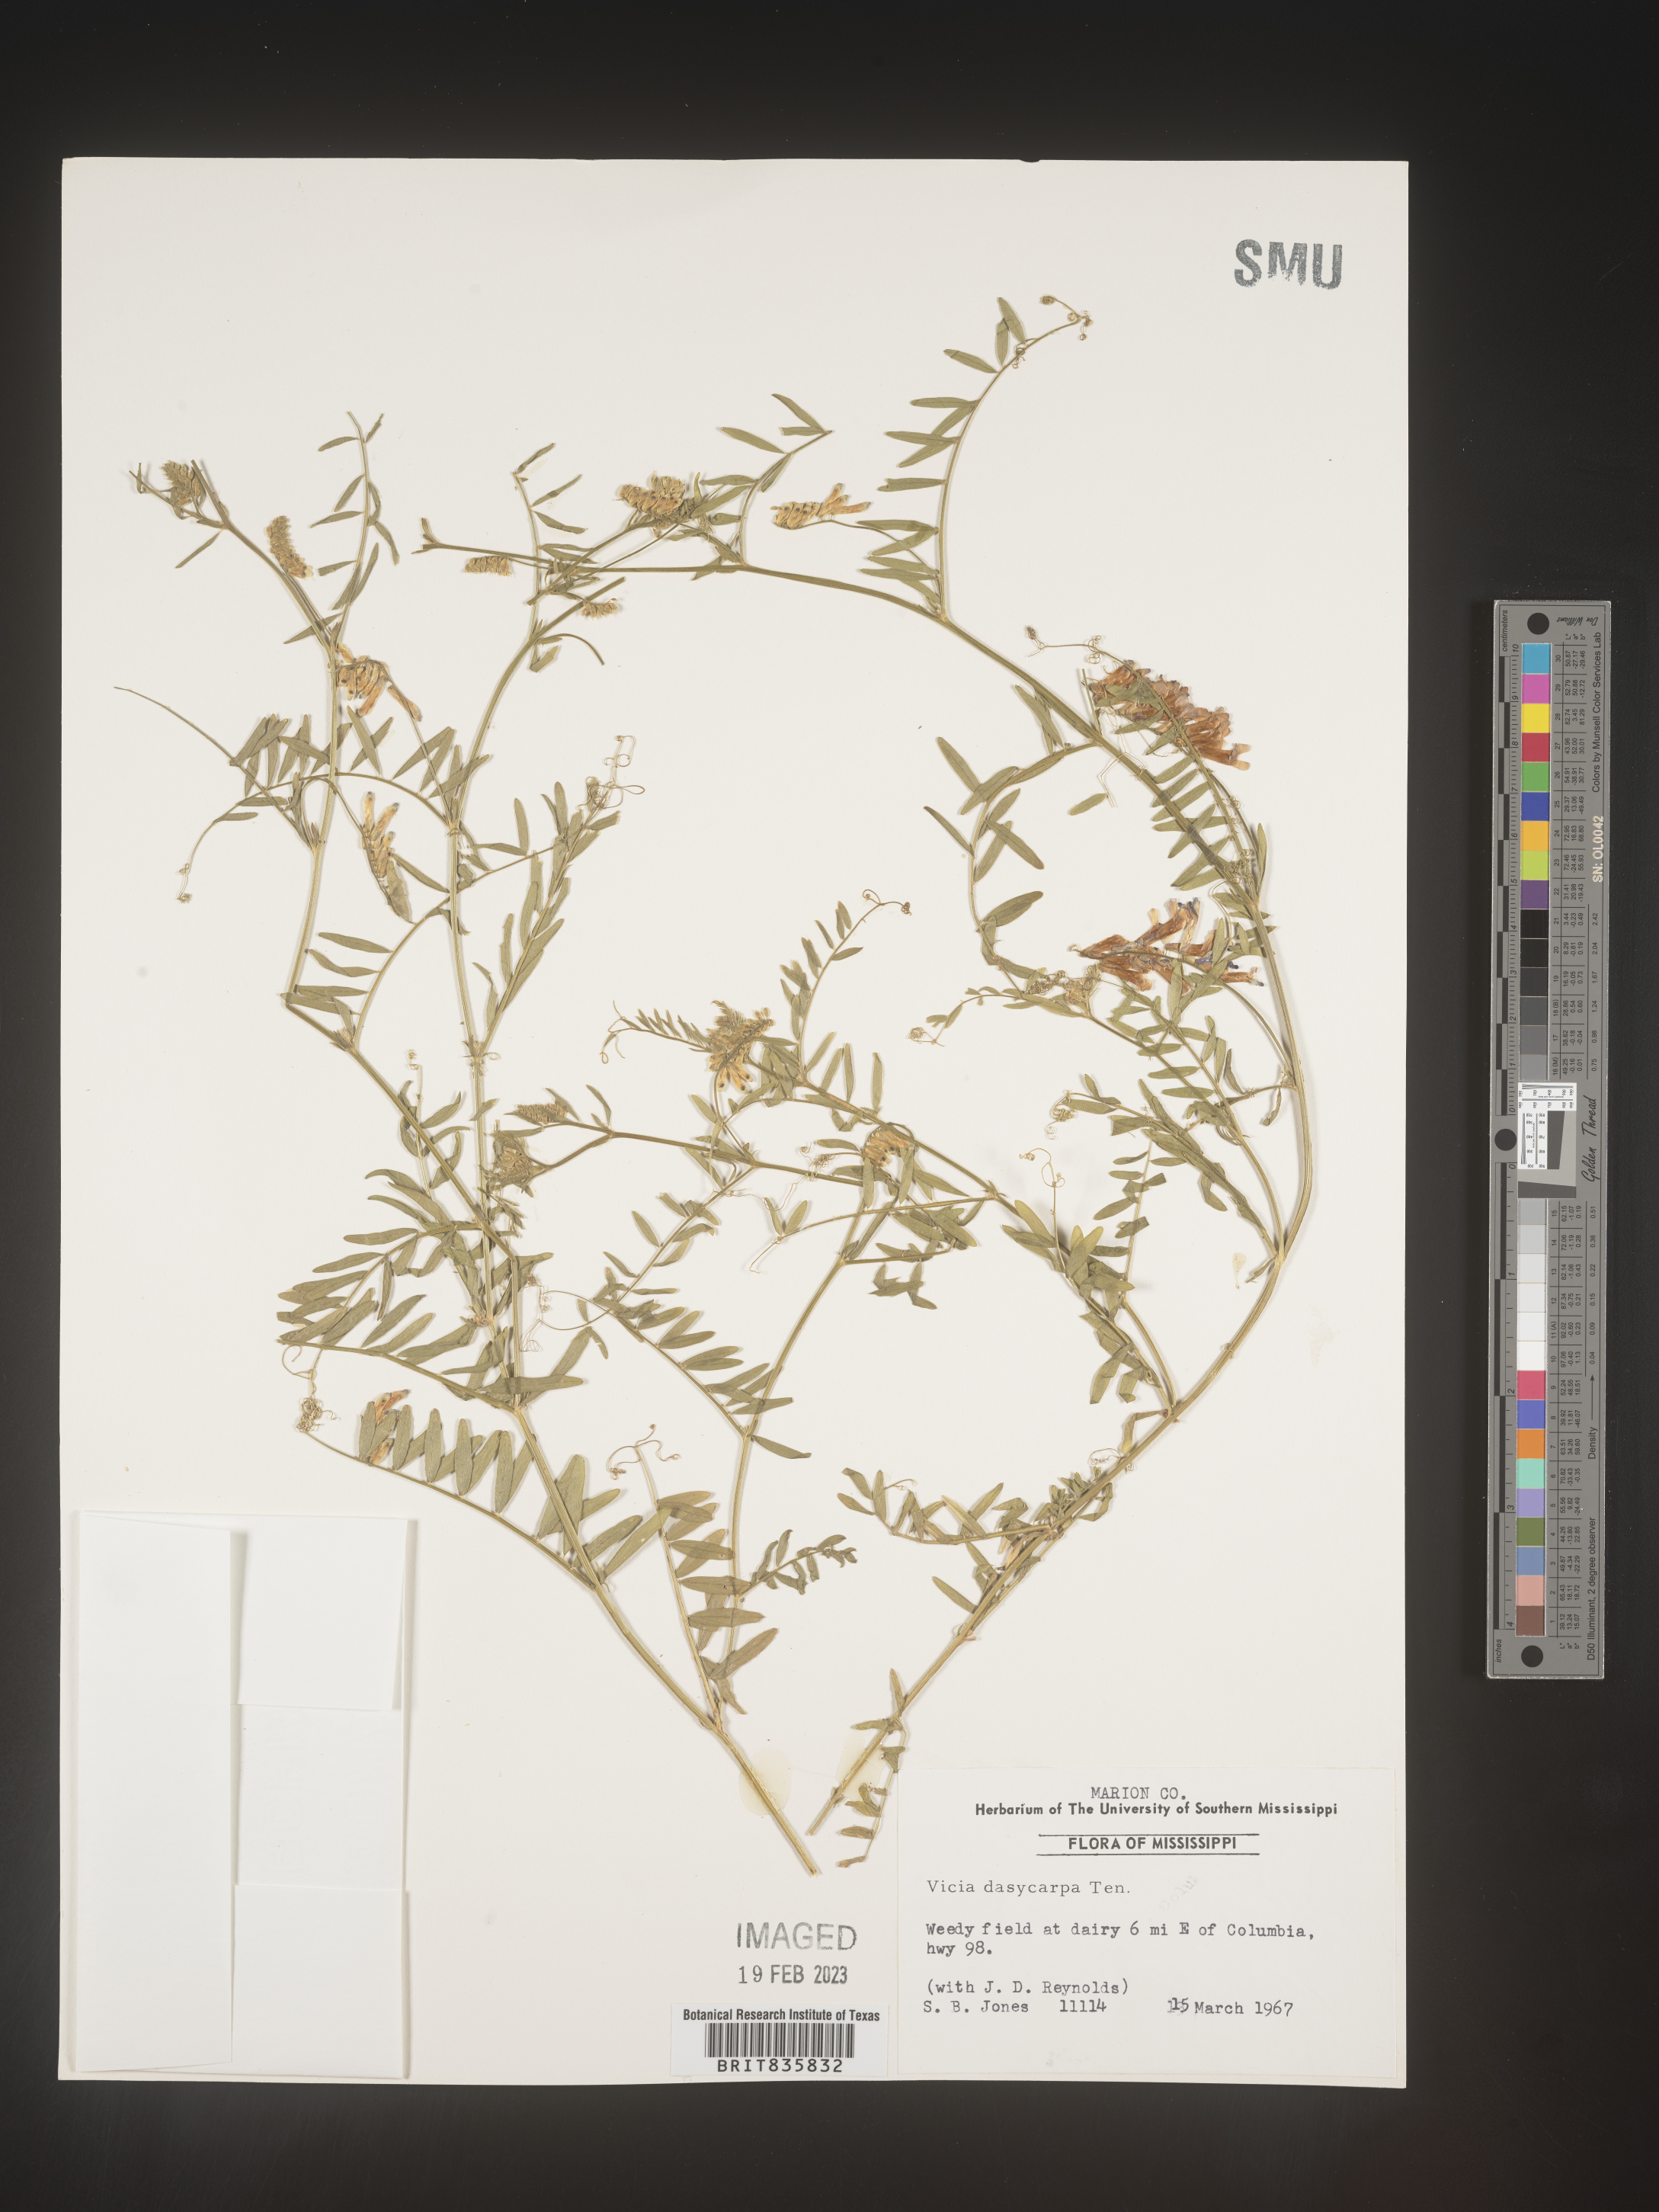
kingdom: Plantae
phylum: Tracheophyta
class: Magnoliopsida
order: Fabales
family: Fabaceae
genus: Vicia
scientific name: Vicia villosa
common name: Fodder vetch
